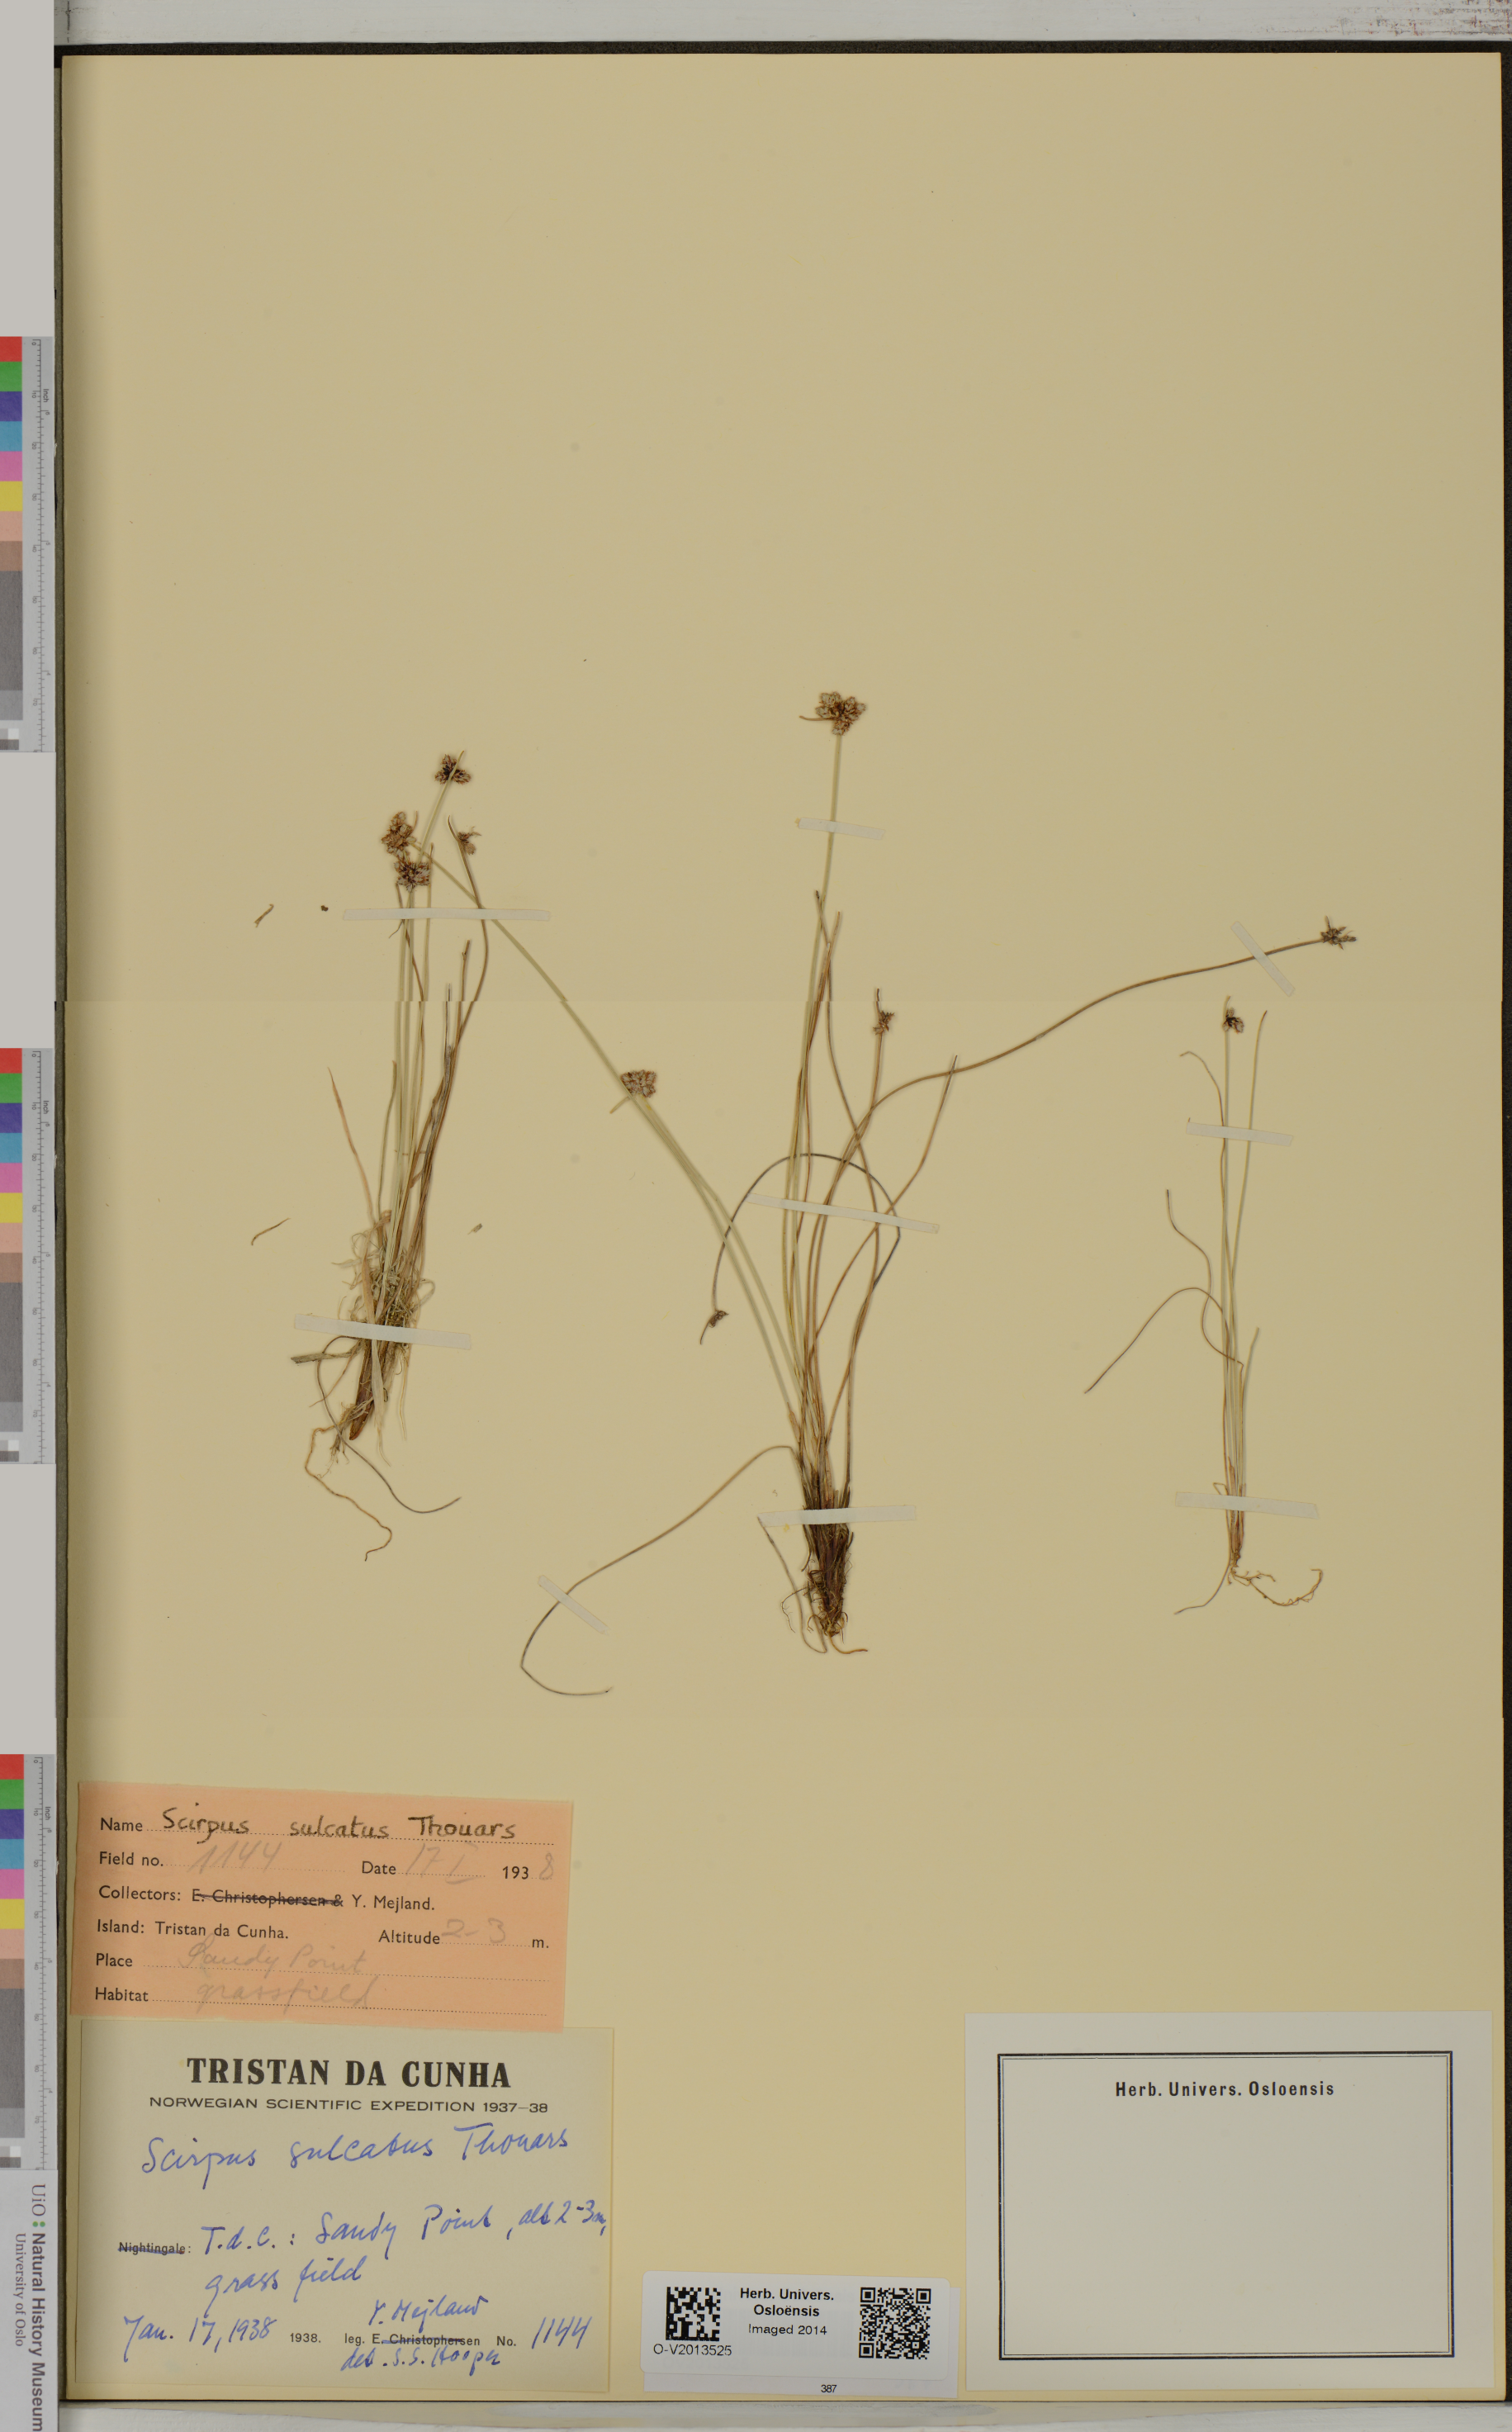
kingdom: Plantae
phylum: Tracheophyta
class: Liliopsida
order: Poales
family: Cyperaceae
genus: Isolepis
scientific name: Isolepis sulcata
